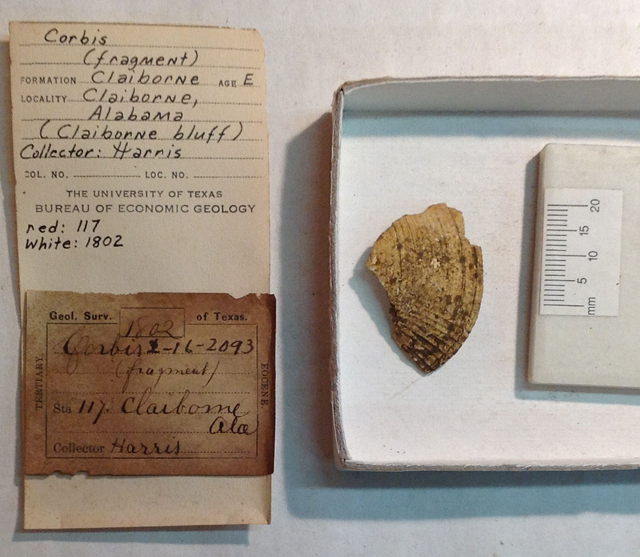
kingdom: Animalia
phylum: Mollusca
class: Bivalvia
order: Lucinida
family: Lucinidae
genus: Fimbria
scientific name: Fimbria
